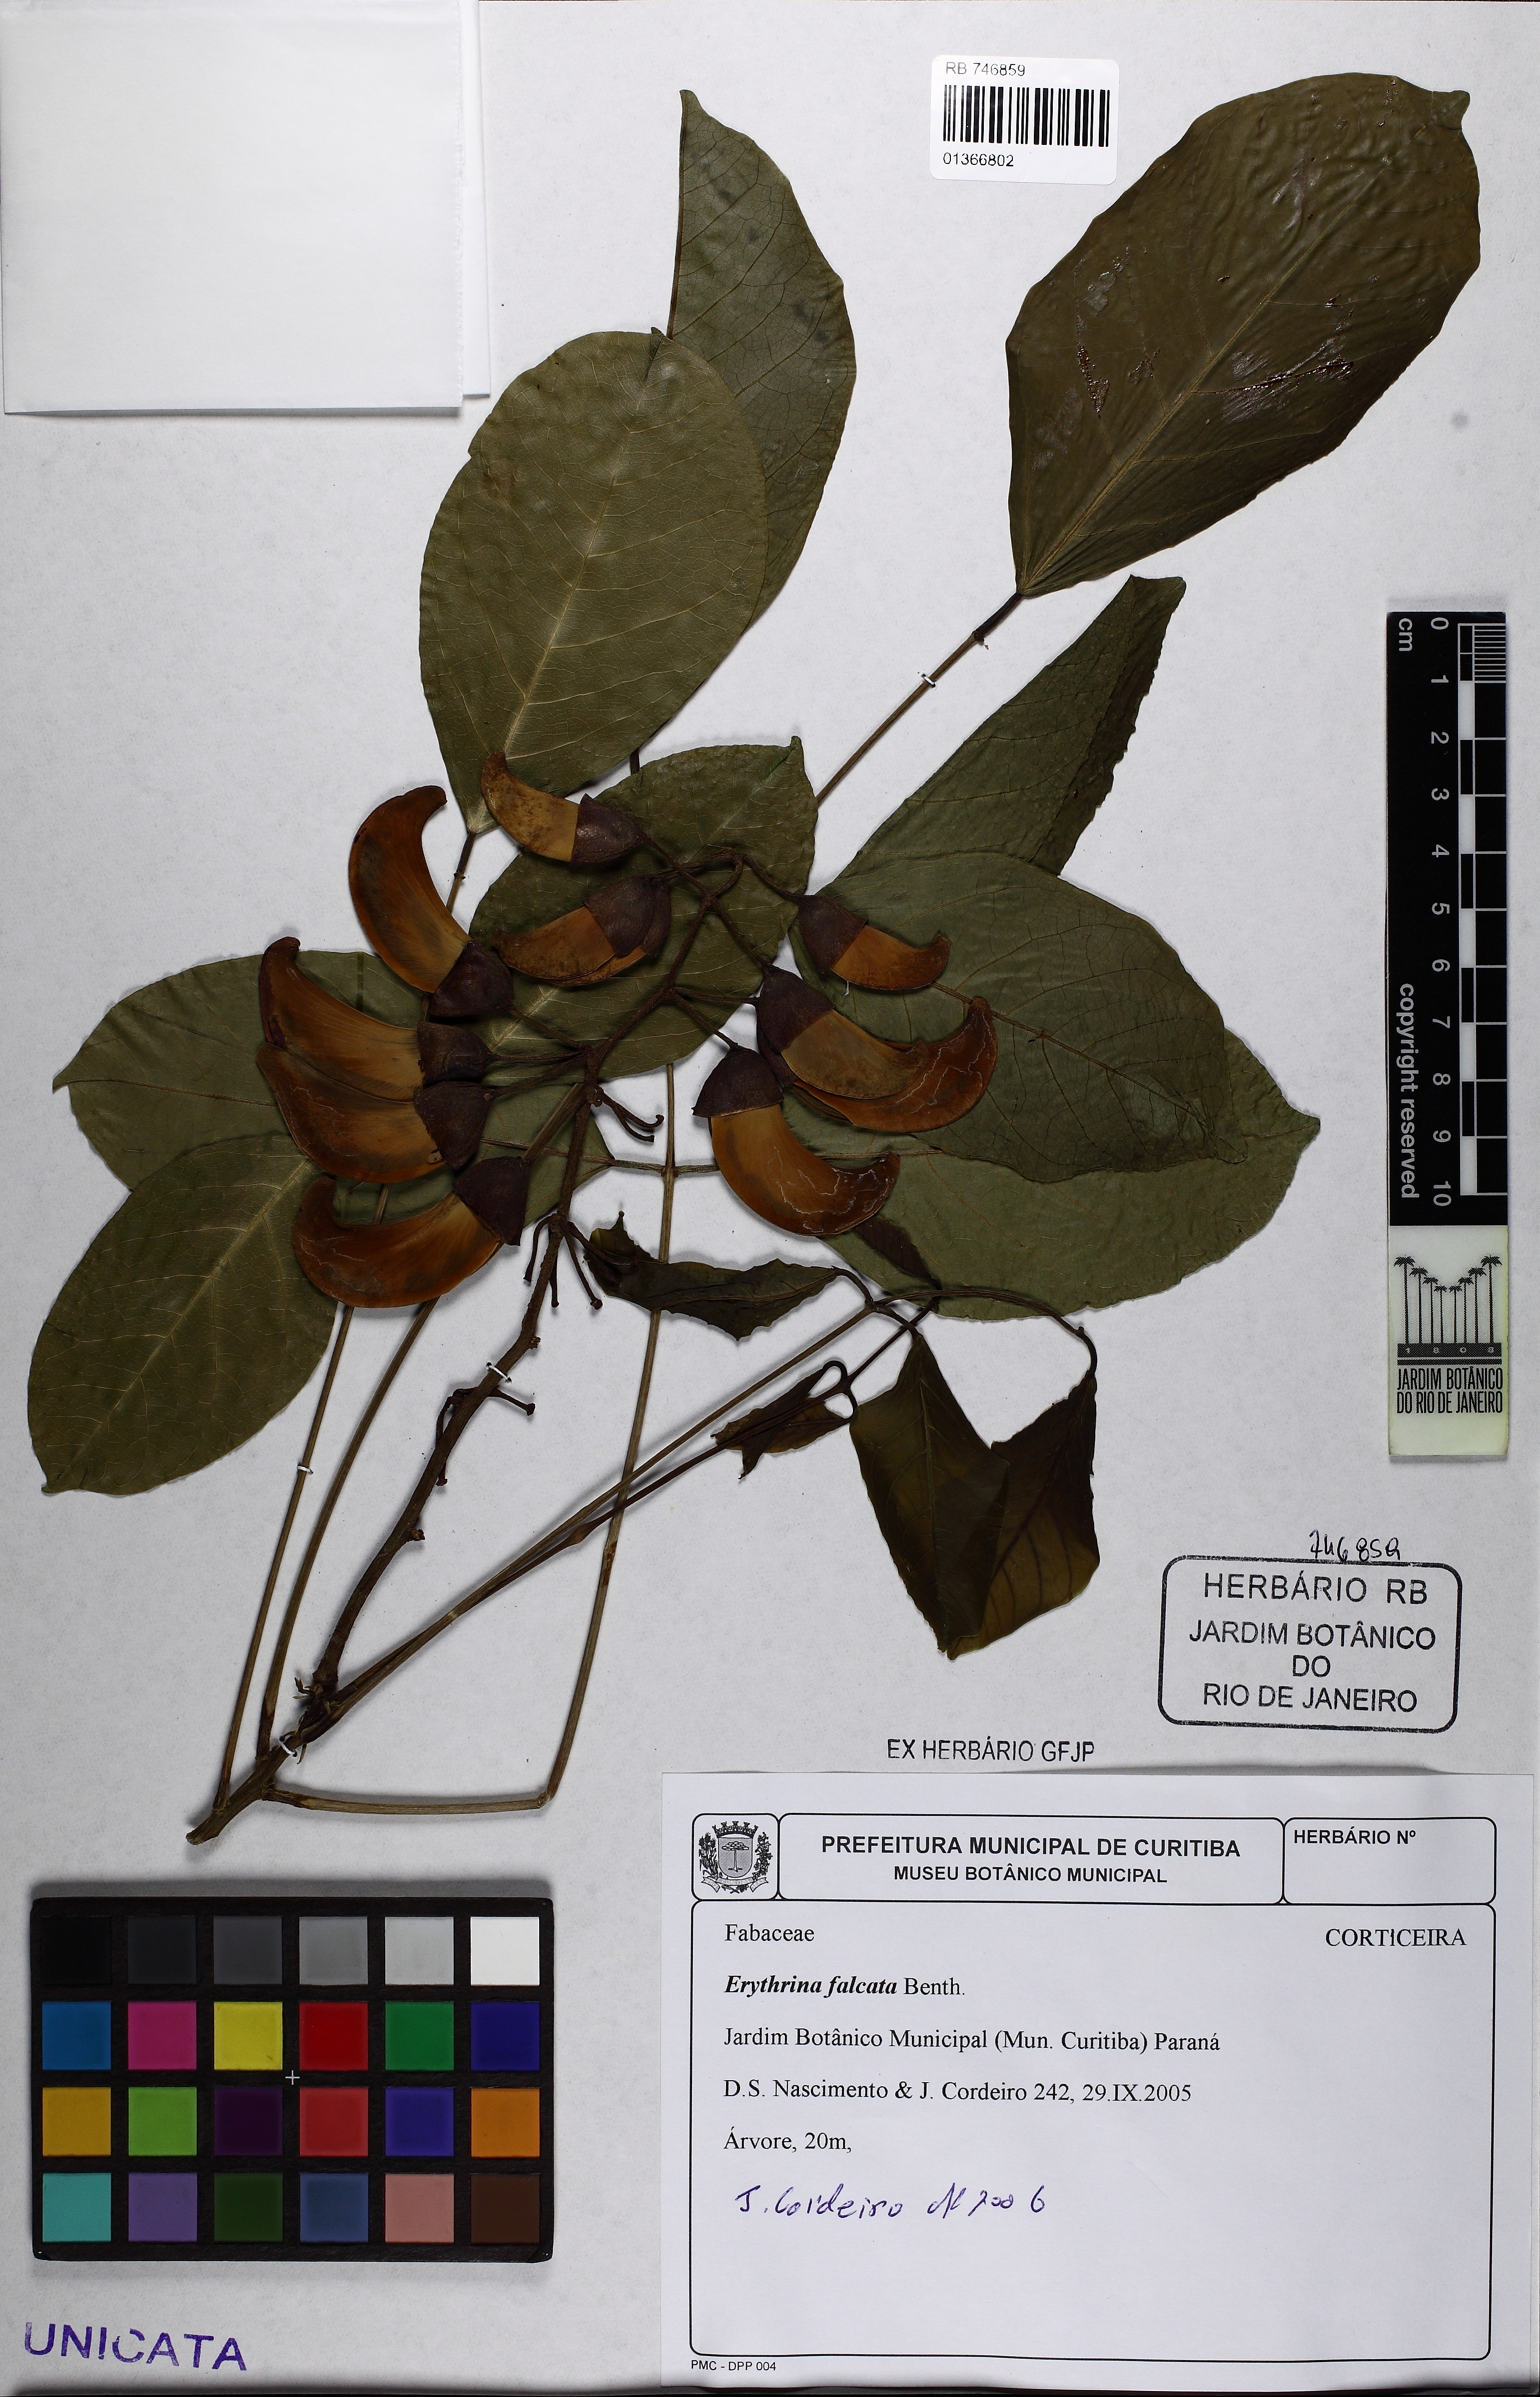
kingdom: Plantae
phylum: Tracheophyta
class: Magnoliopsida
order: Fabales
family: Fabaceae
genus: Erythrina
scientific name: Erythrina falcata
